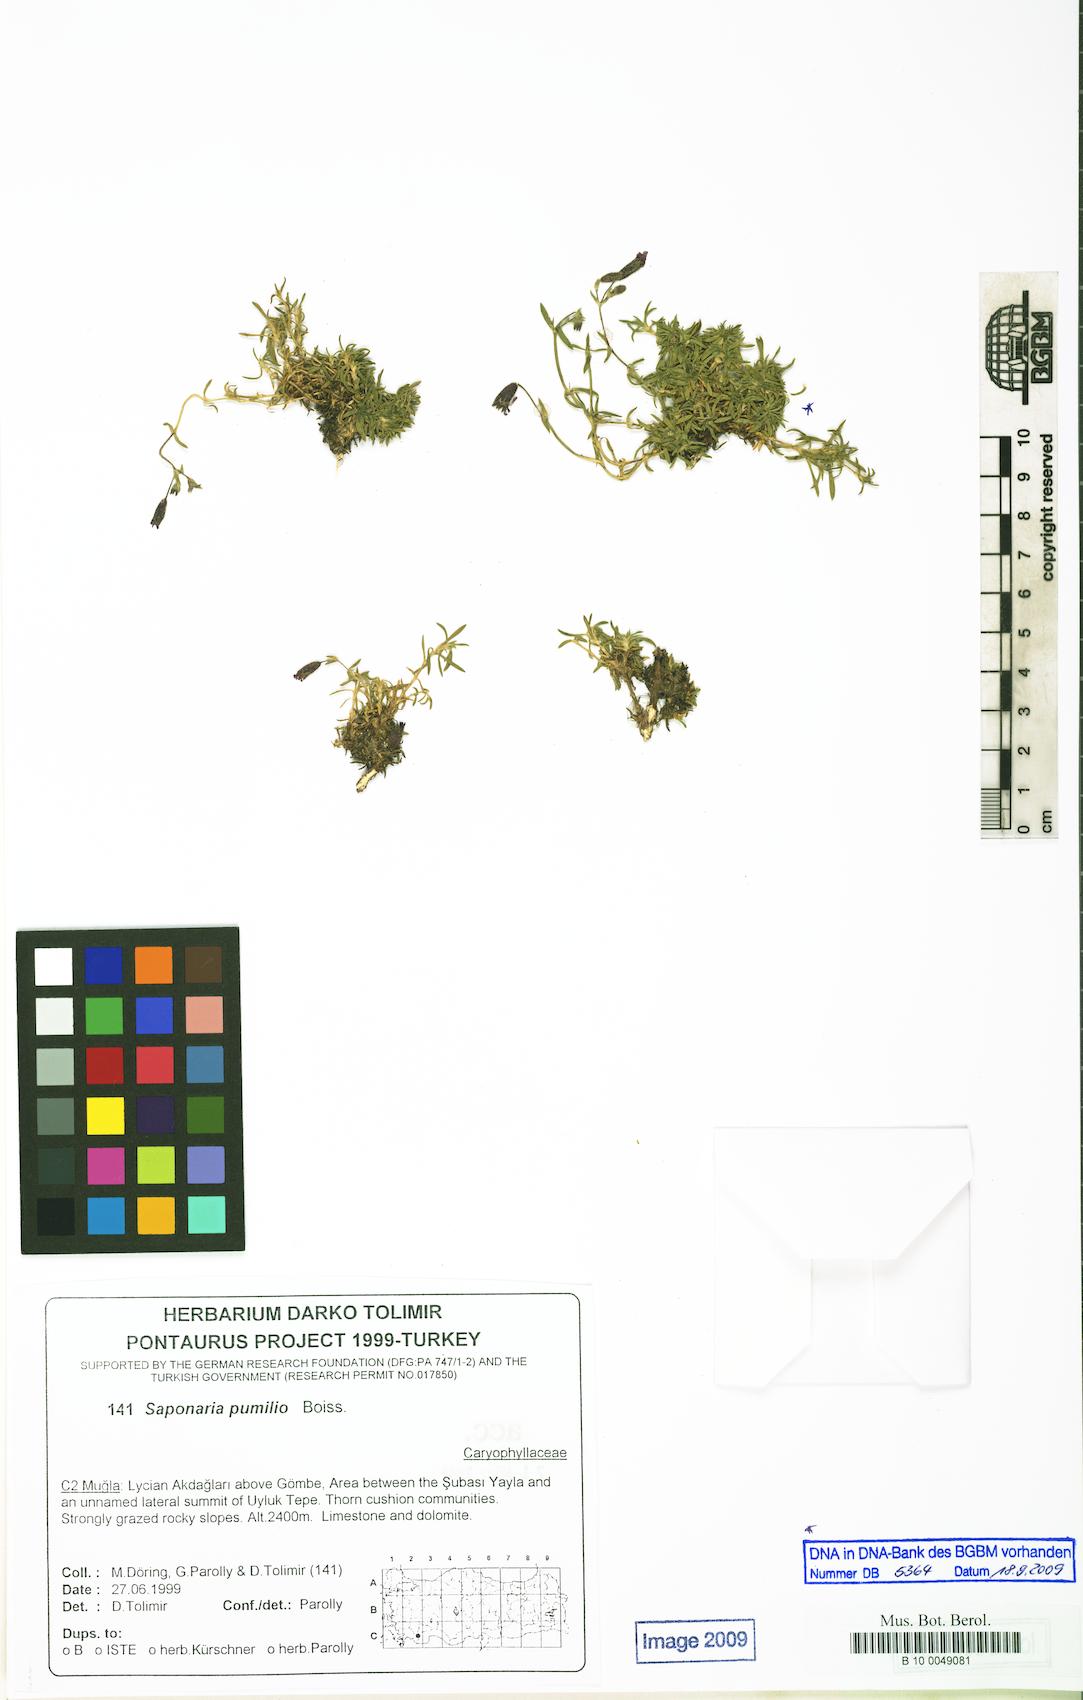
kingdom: Plantae
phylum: Tracheophyta
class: Magnoliopsida
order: Caryophyllales
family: Caryophyllaceae
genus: Saponaria
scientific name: Saponaria pumilio
